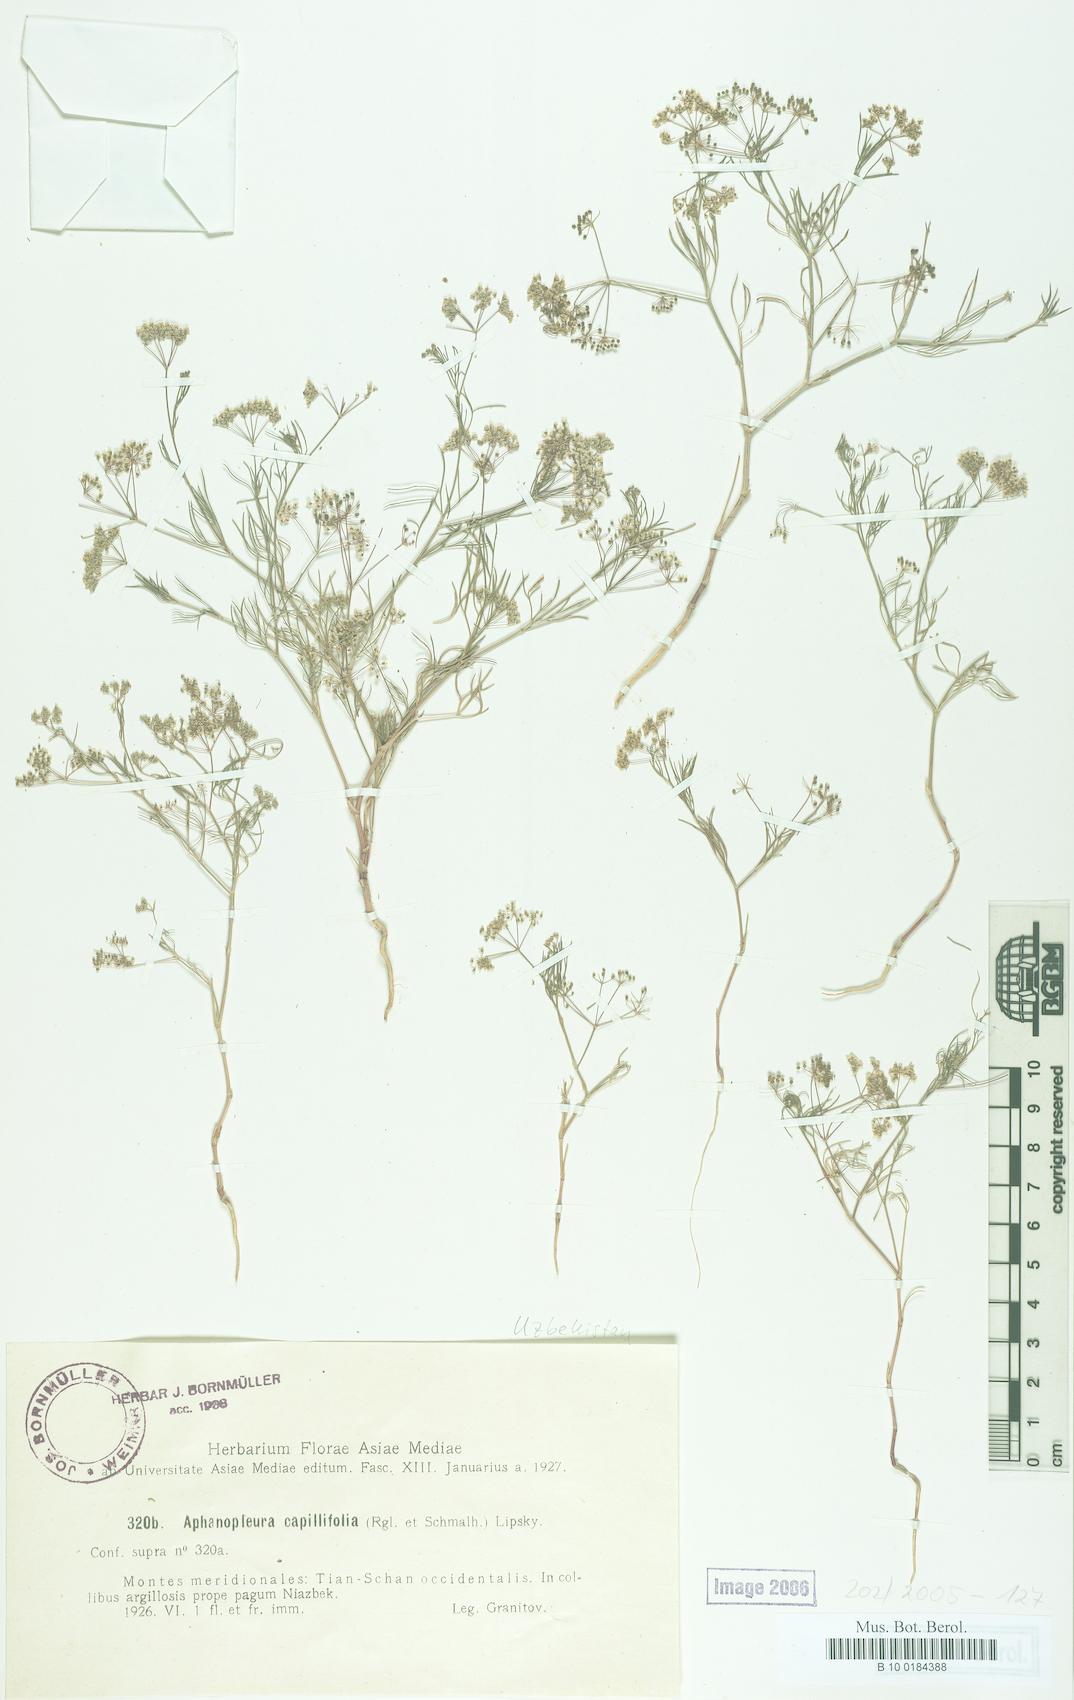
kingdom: Plantae
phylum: Tracheophyta
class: Magnoliopsida
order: Apiales
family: Apiaceae
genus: Psammogeton
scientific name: Psammogeton capillifolium
